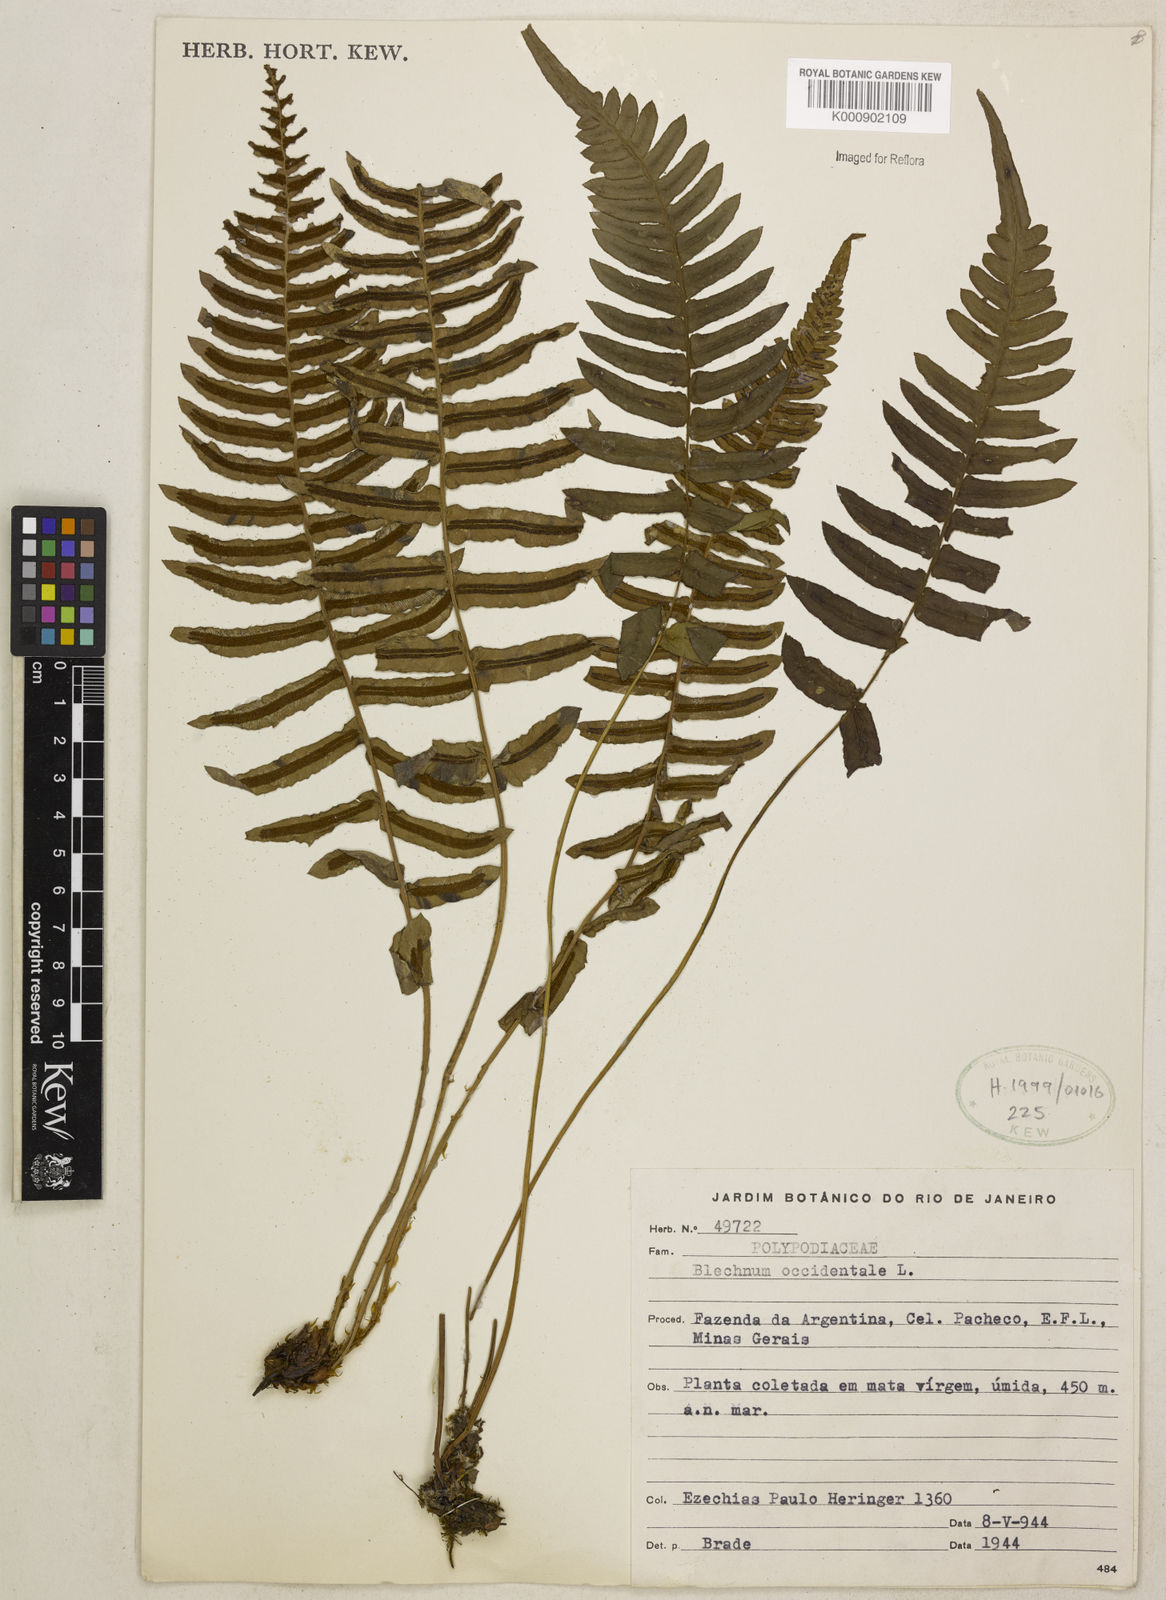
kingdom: Plantae
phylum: Tracheophyta
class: Polypodiopsida
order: Polypodiales
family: Blechnaceae
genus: Blechnum
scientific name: Blechnum occidentale
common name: Hammock fern
